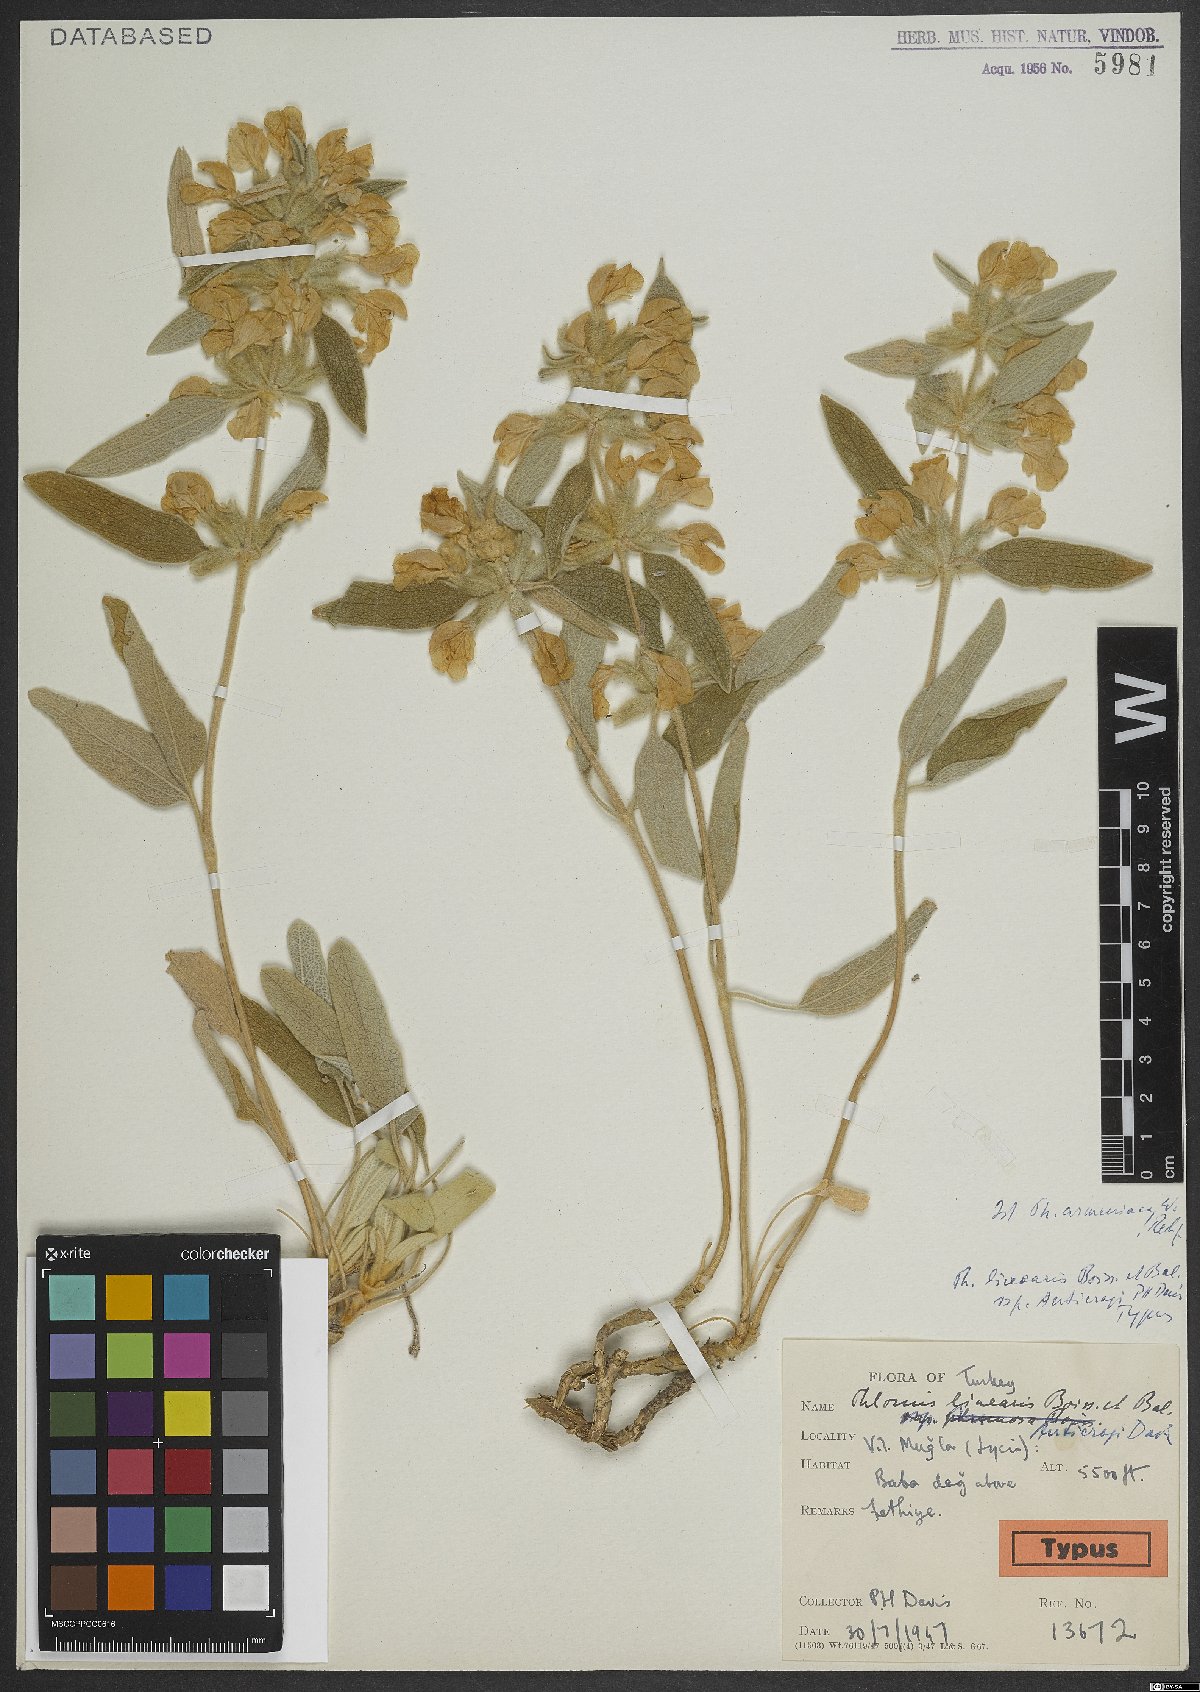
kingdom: Plantae
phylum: Tracheophyta
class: Magnoliopsida
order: Lamiales
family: Lamiaceae
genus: Phlomis
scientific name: Phlomis armeniaca
